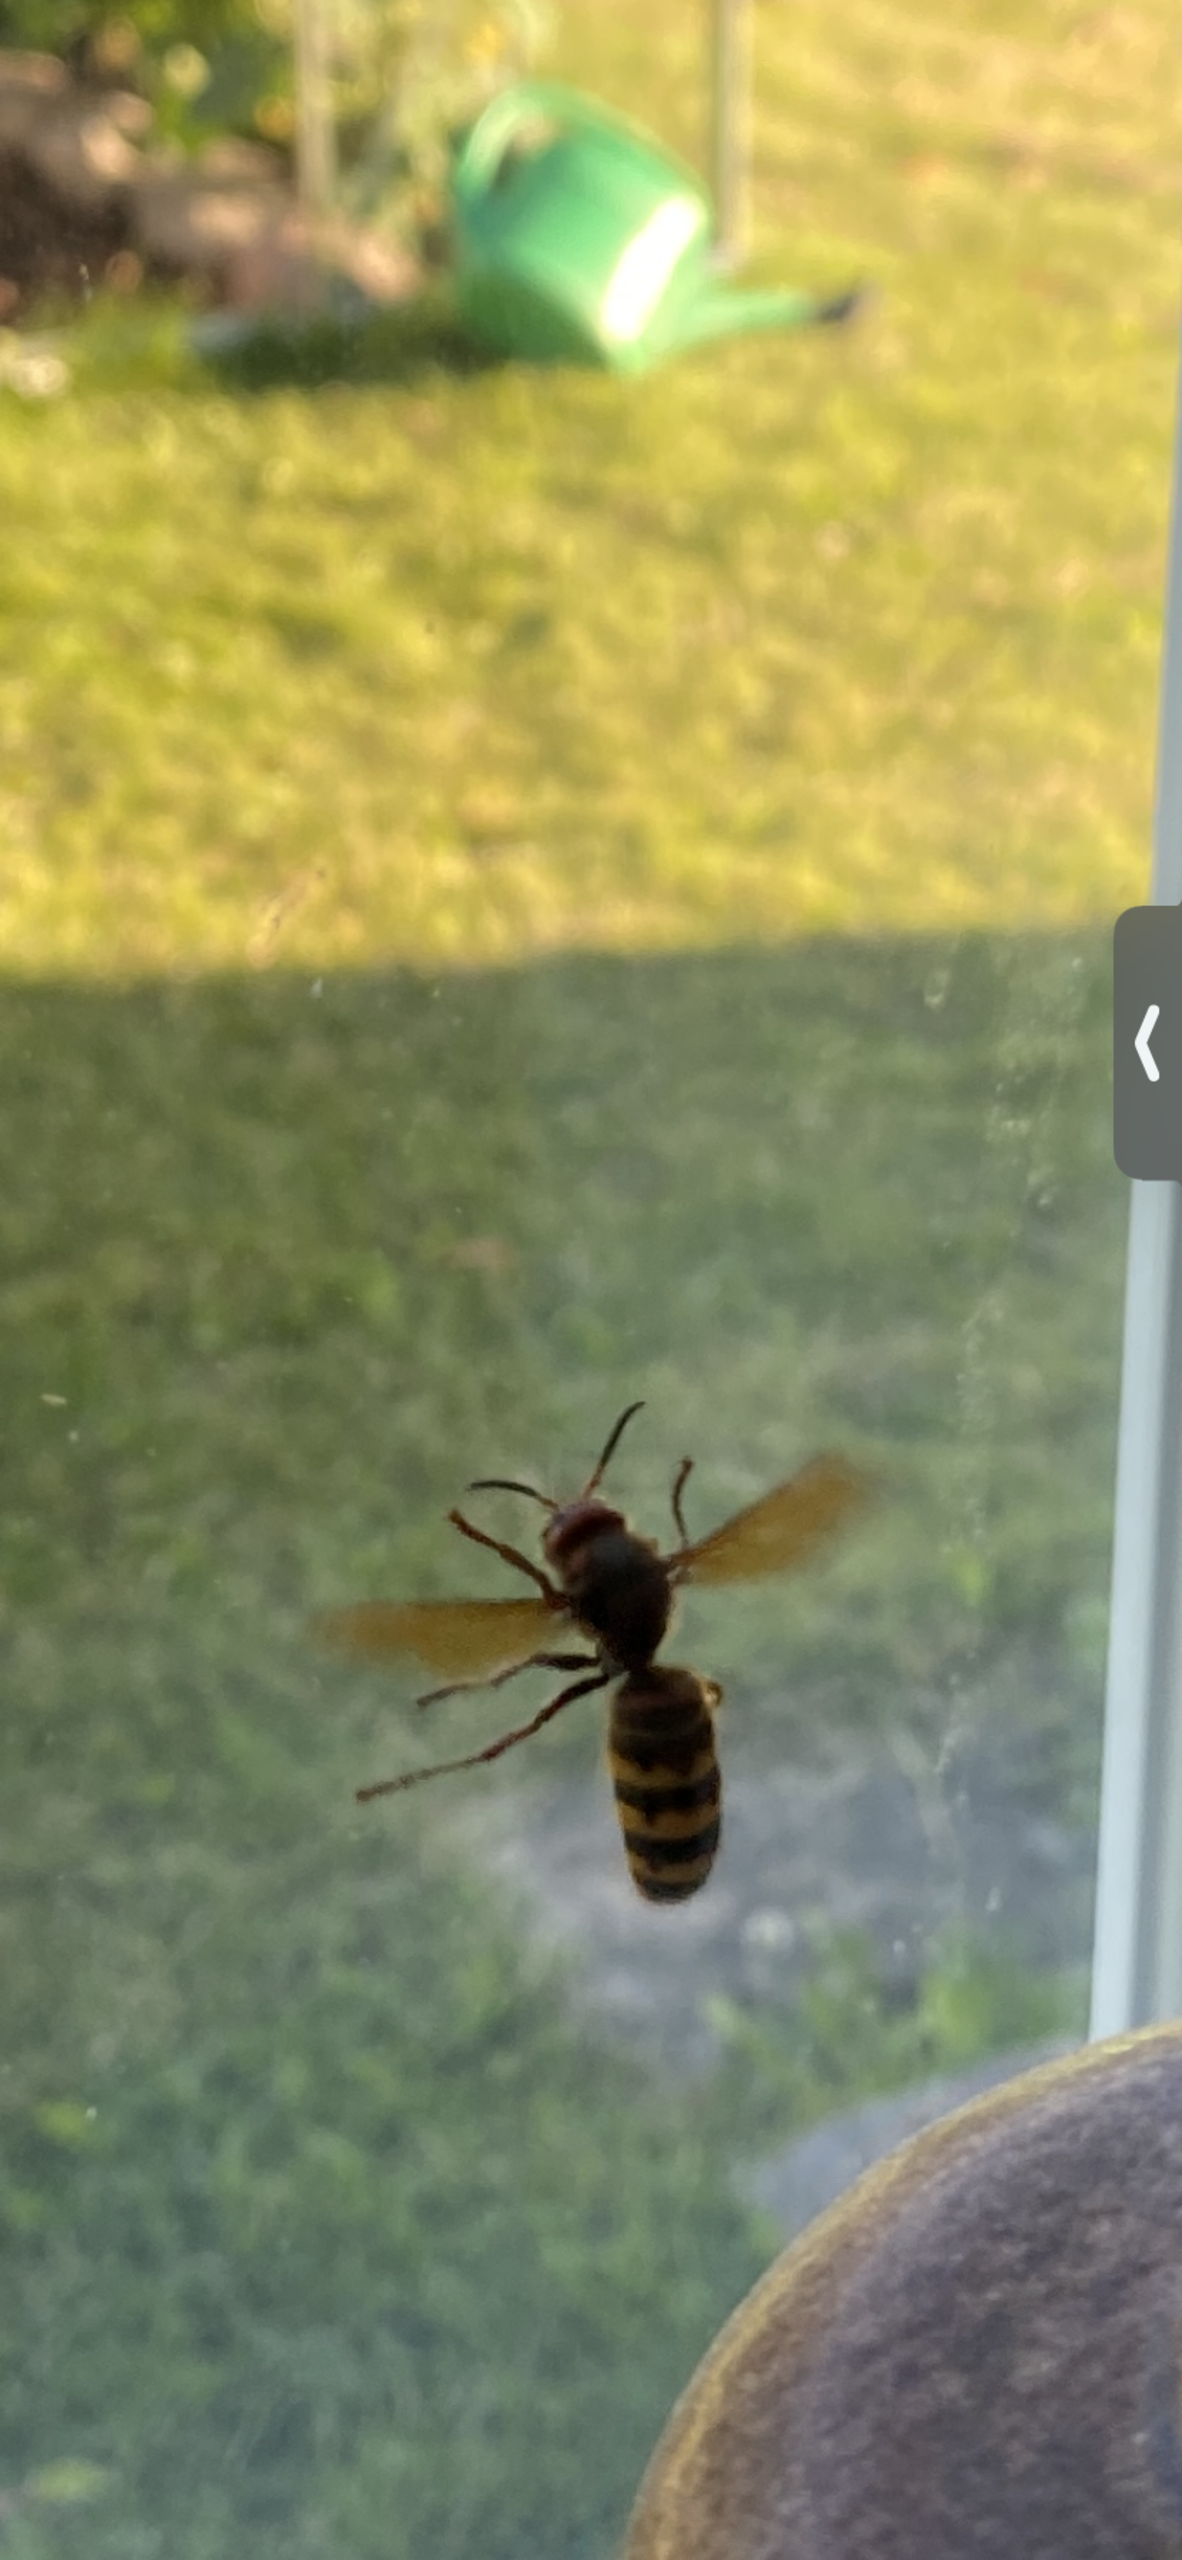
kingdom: Animalia
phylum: Arthropoda
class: Insecta
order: Hymenoptera
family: Vespidae
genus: Vespa
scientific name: Vespa crabro
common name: Stor gedehams
